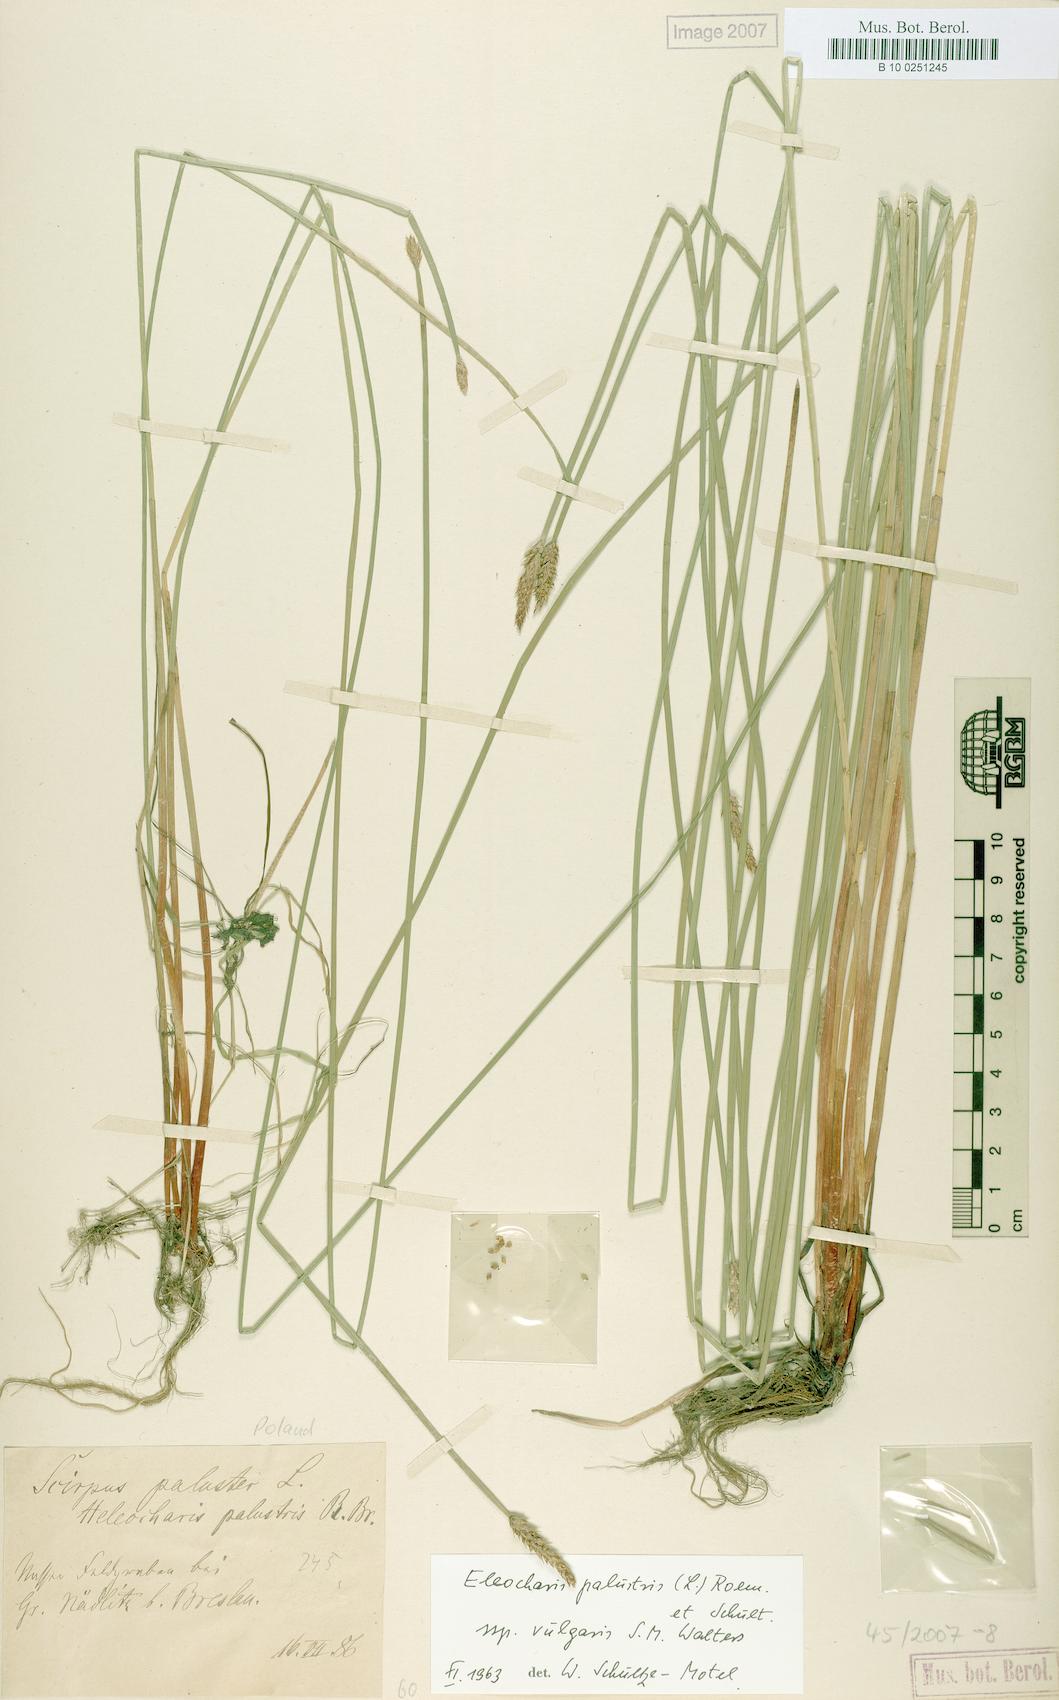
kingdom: Plantae
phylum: Tracheophyta
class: Liliopsida
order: Poales
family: Cyperaceae
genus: Eleocharis
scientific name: Eleocharis palustris
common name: Common spike-rush
